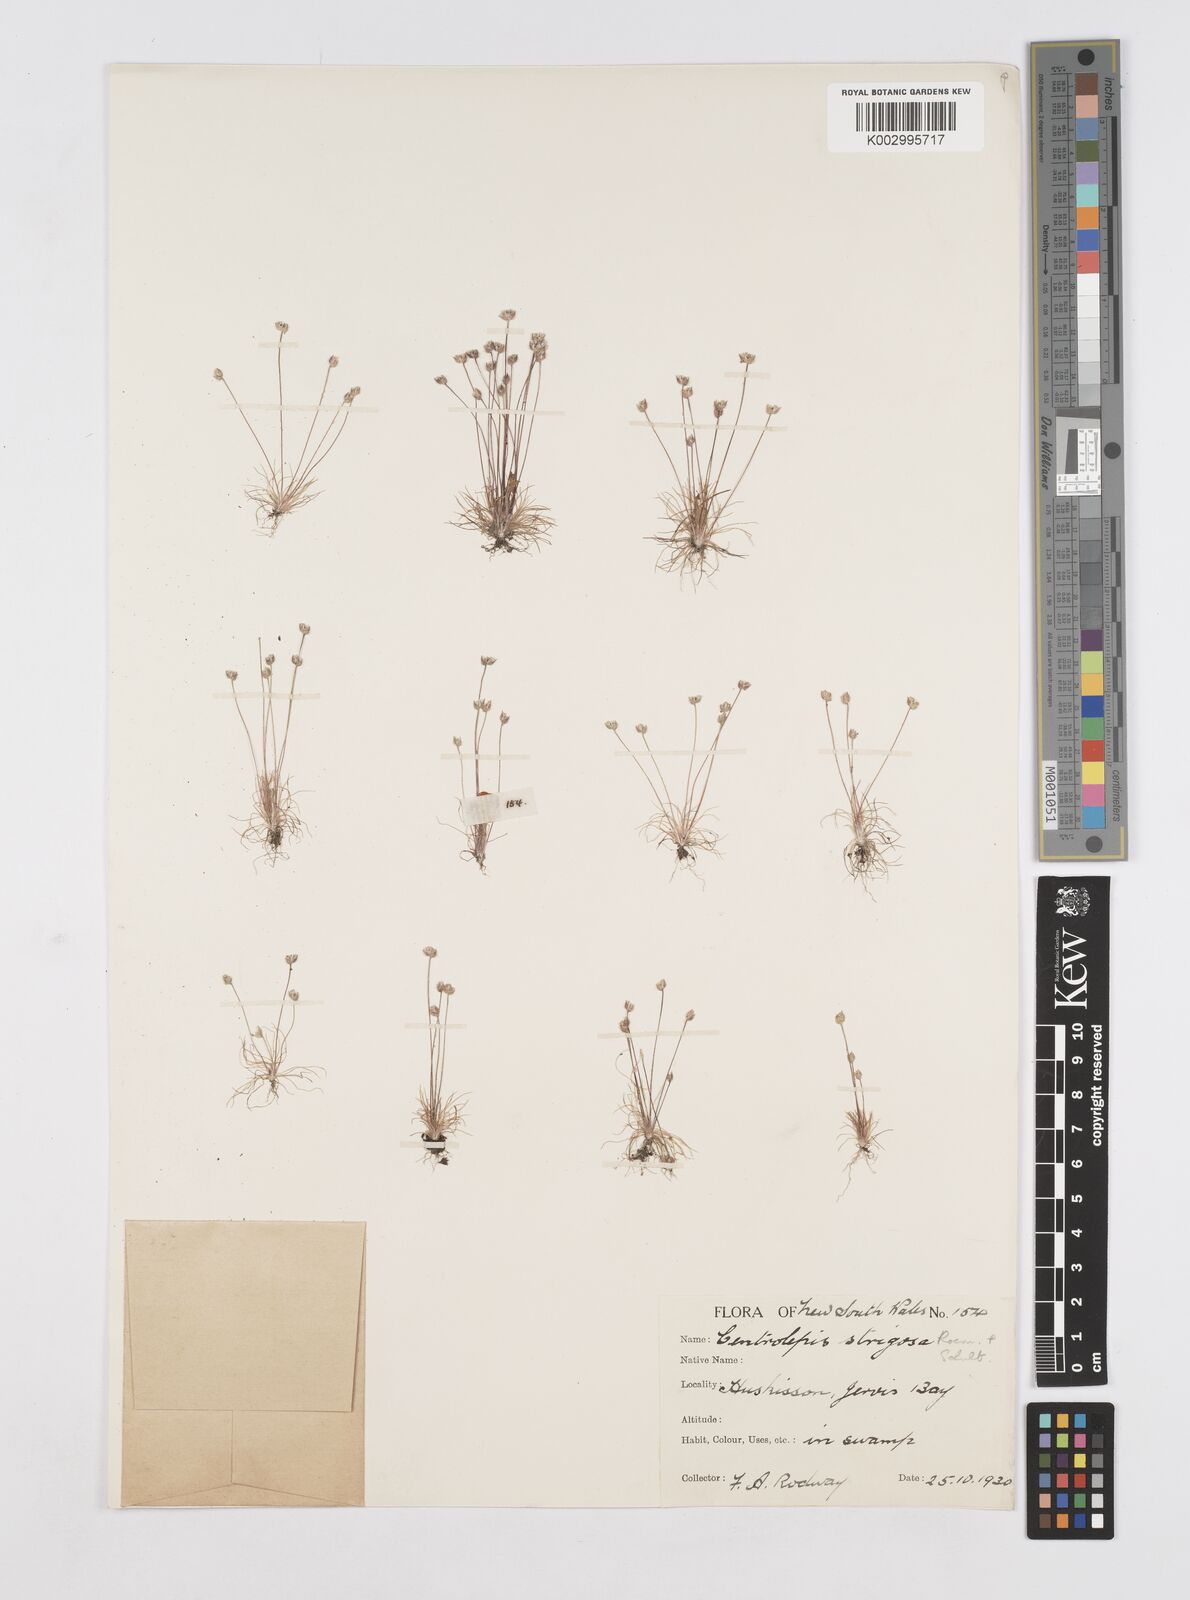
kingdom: Plantae
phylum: Tracheophyta
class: Liliopsida
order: Poales
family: Restionaceae
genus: Centrolepis
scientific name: Centrolepis strigosa
